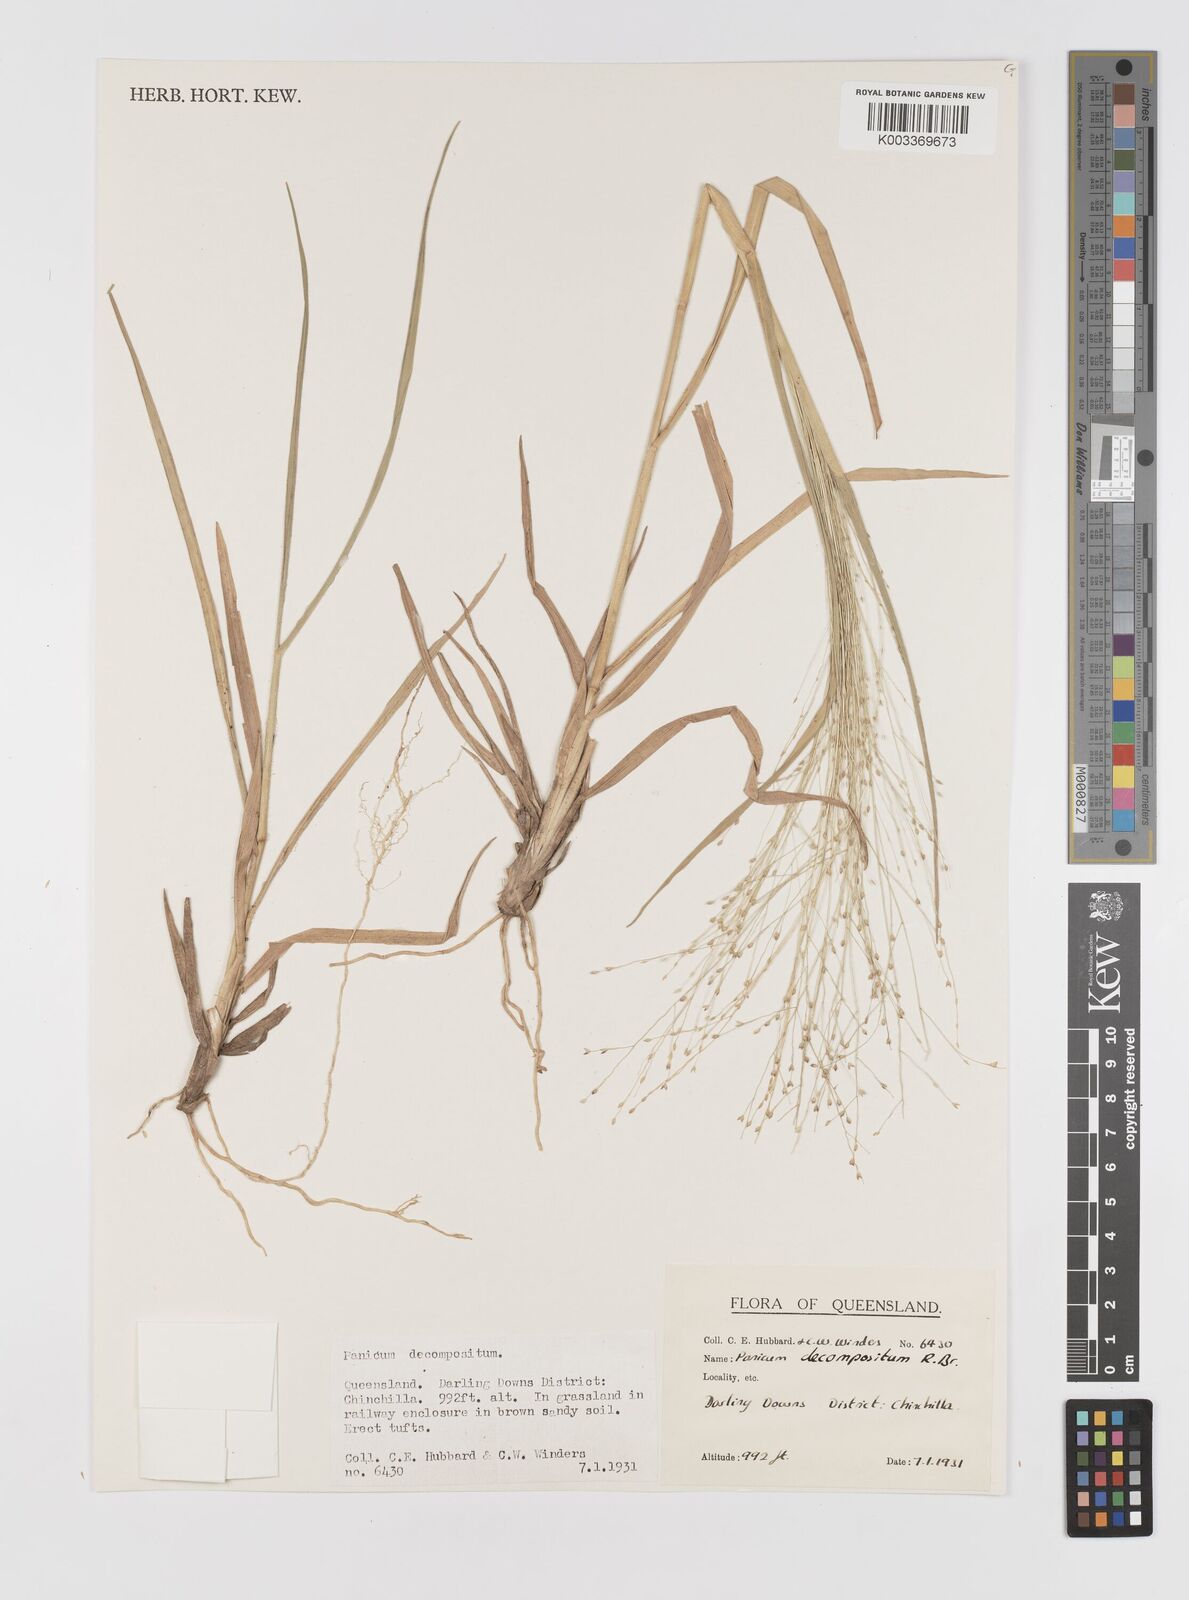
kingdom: Plantae
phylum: Tracheophyta
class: Liliopsida
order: Poales
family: Poaceae
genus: Panicum
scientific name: Panicum decompositum
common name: Australian millet
